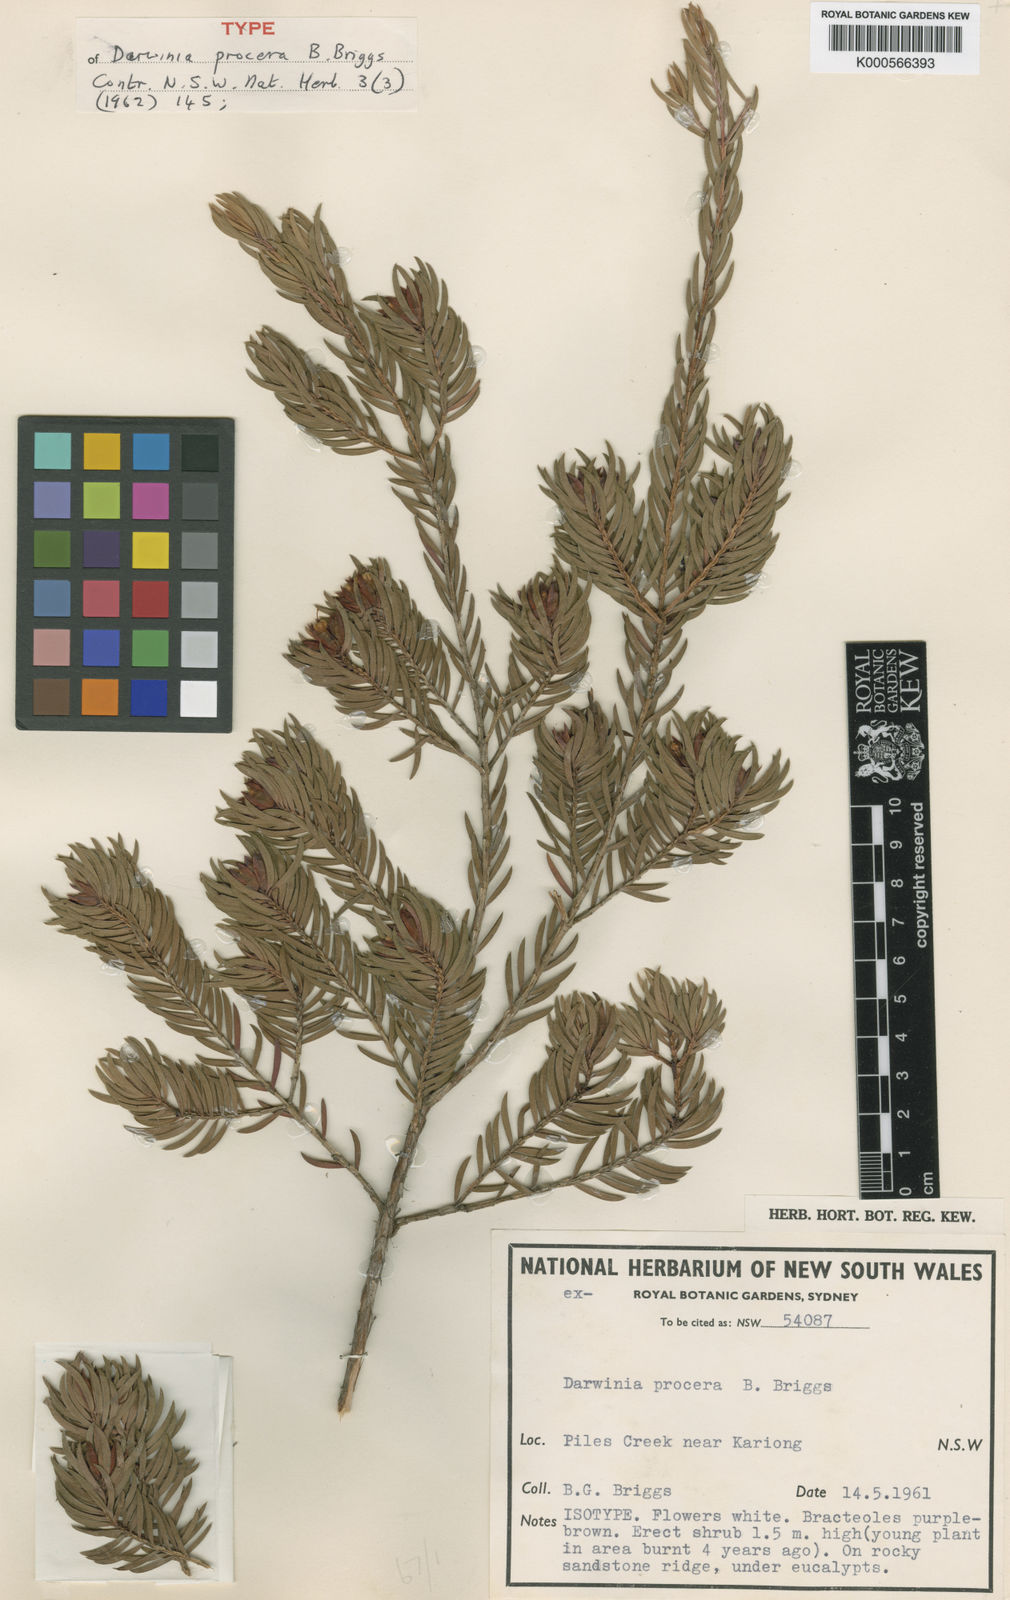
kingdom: Plantae
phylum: Tracheophyta
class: Magnoliopsida
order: Myrtales
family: Myrtaceae
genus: Darwinia
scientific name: Darwinia procera
